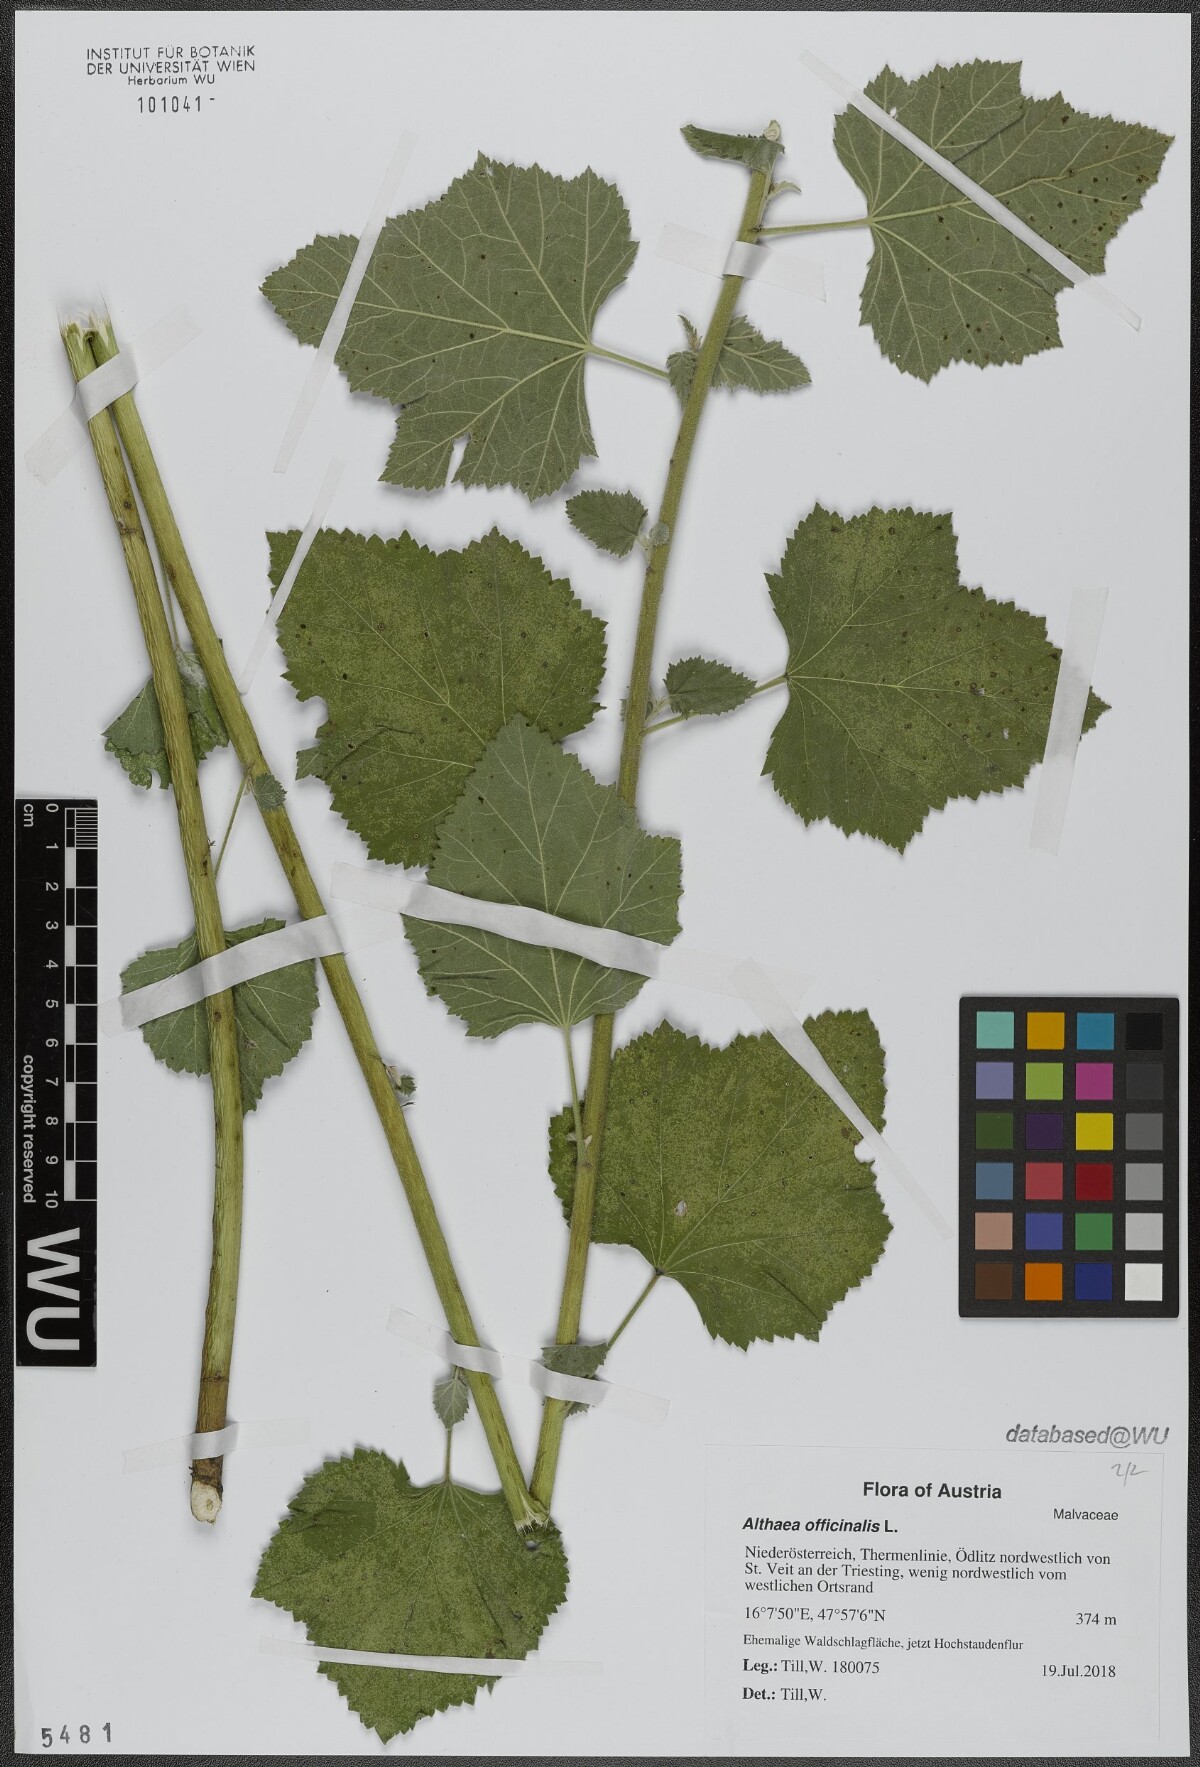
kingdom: Plantae
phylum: Tracheophyta
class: Magnoliopsida
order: Malvales
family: Malvaceae
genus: Althaea
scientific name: Althaea officinalis
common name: Marsh-mallow
